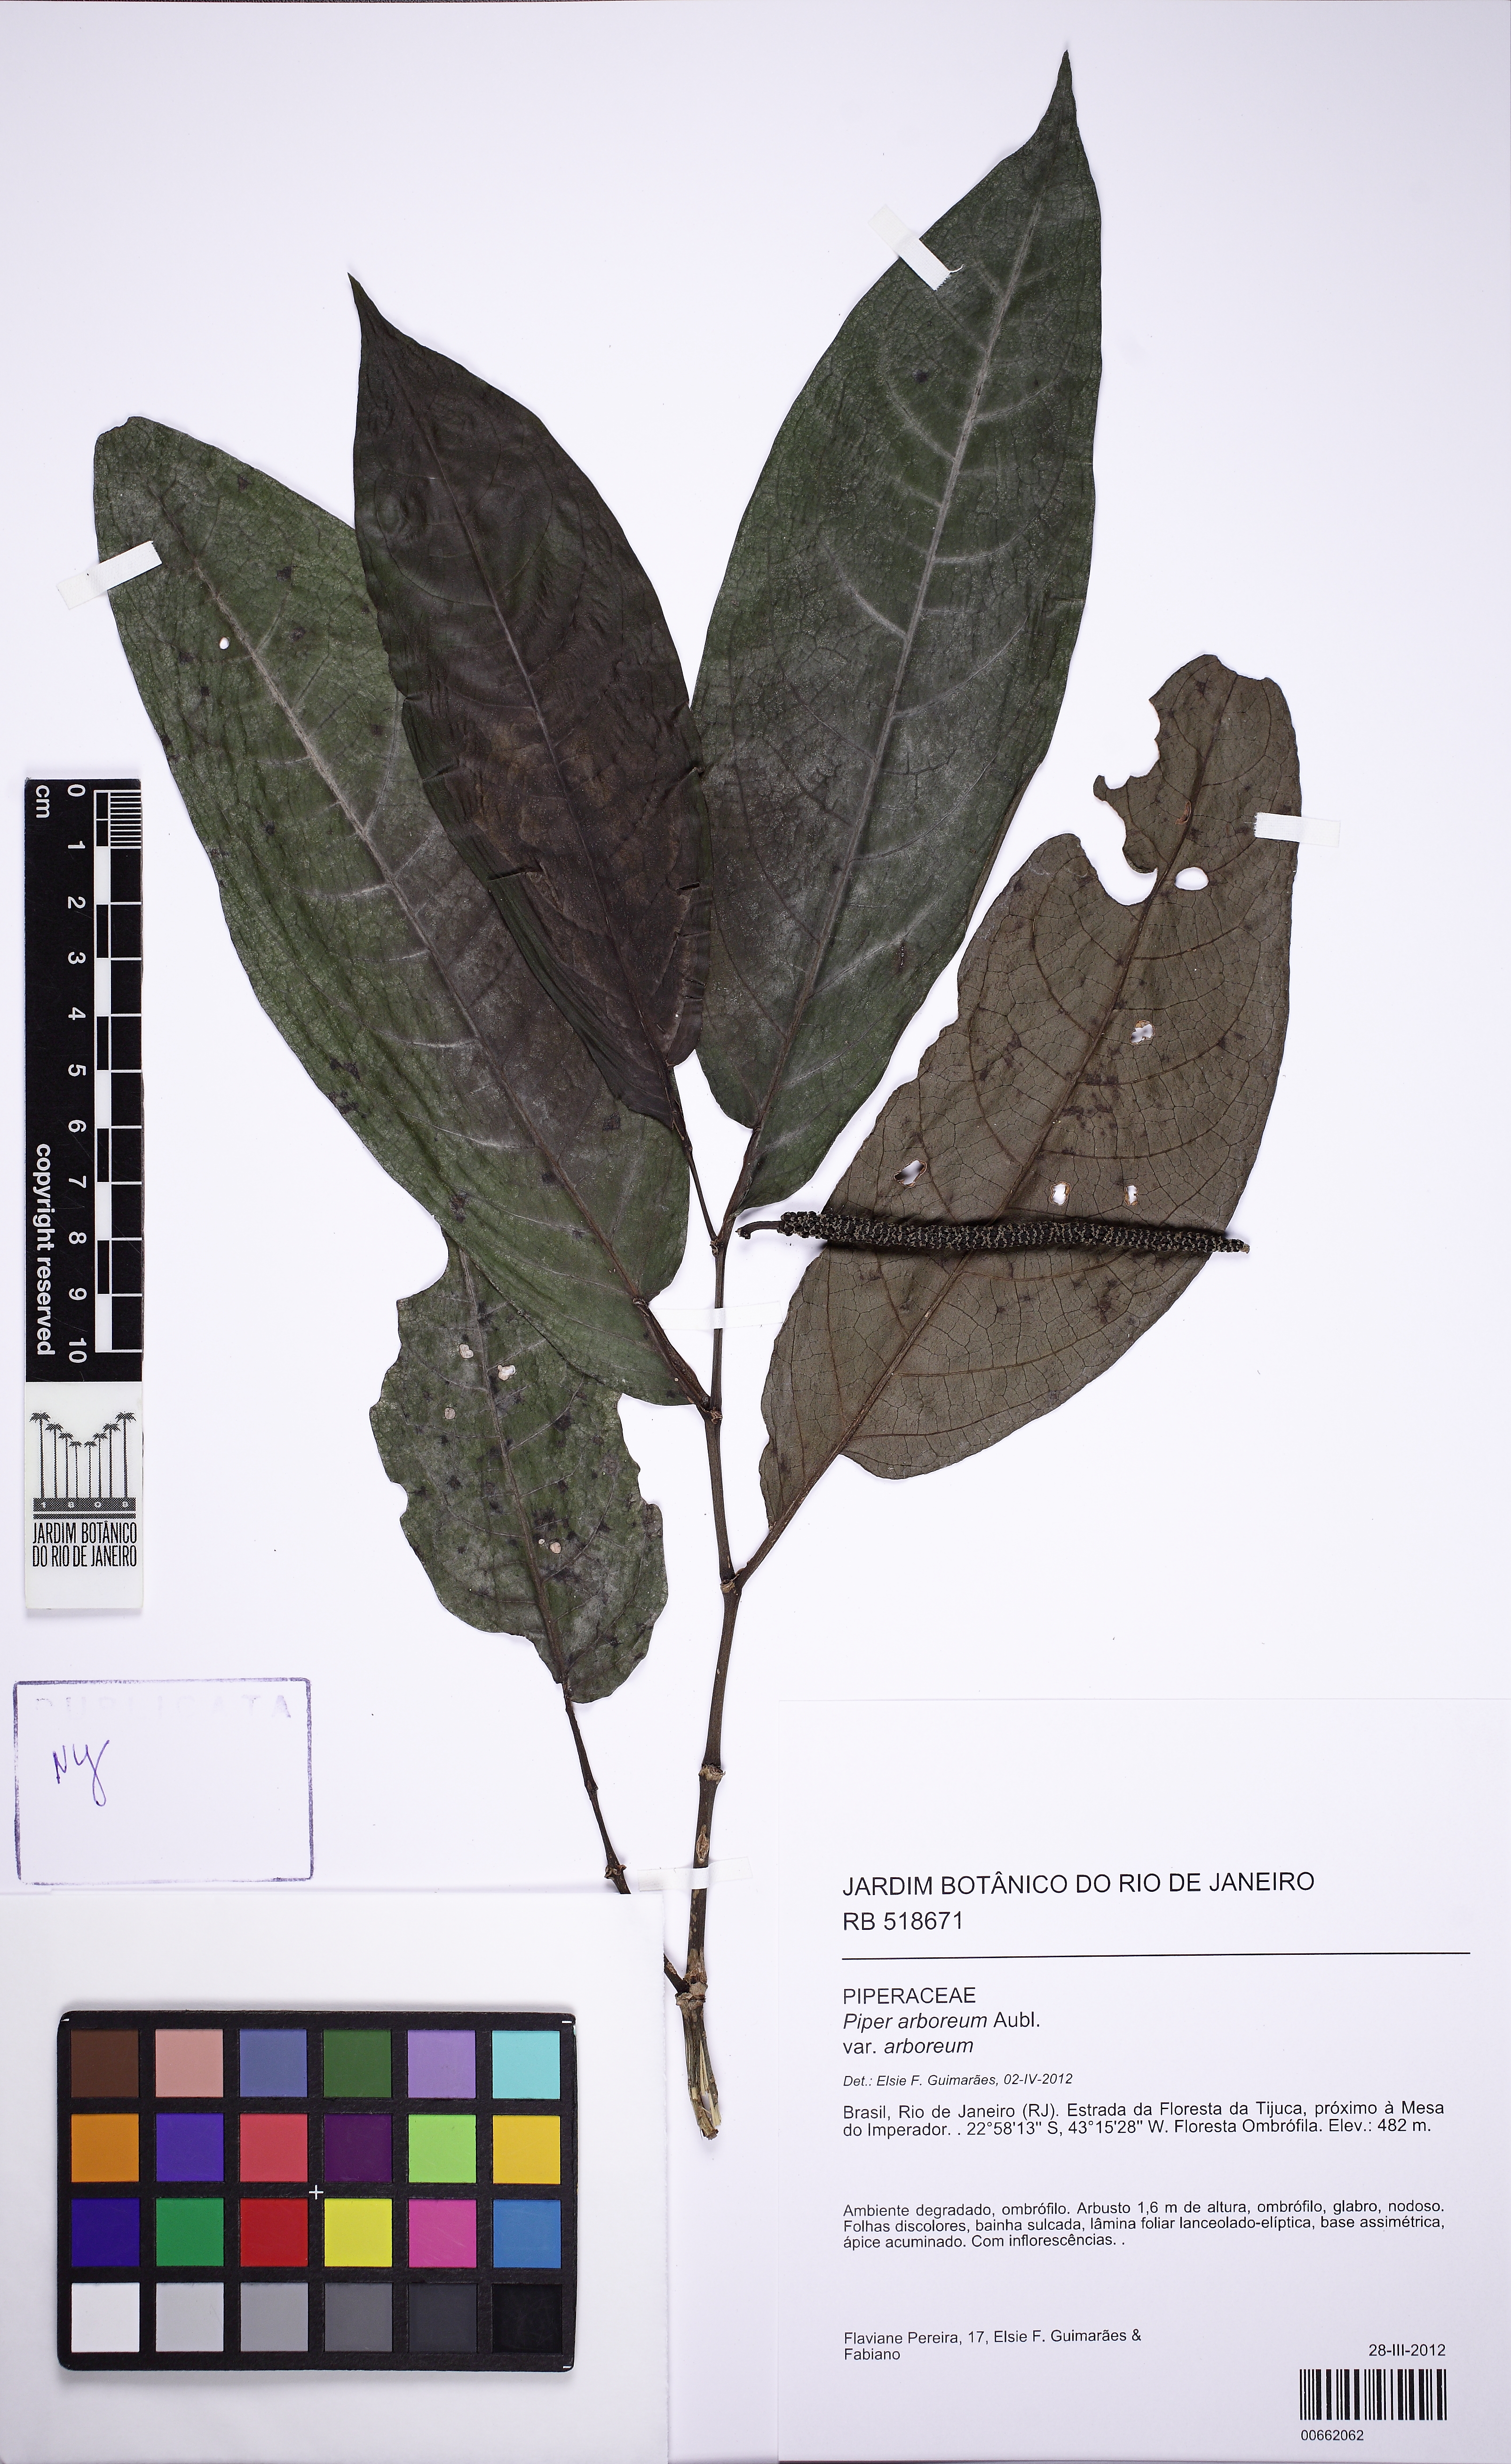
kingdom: Plantae
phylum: Tracheophyta
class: Magnoliopsida
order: Piperales
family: Piperaceae
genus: Piper
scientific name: Piper arboreum
